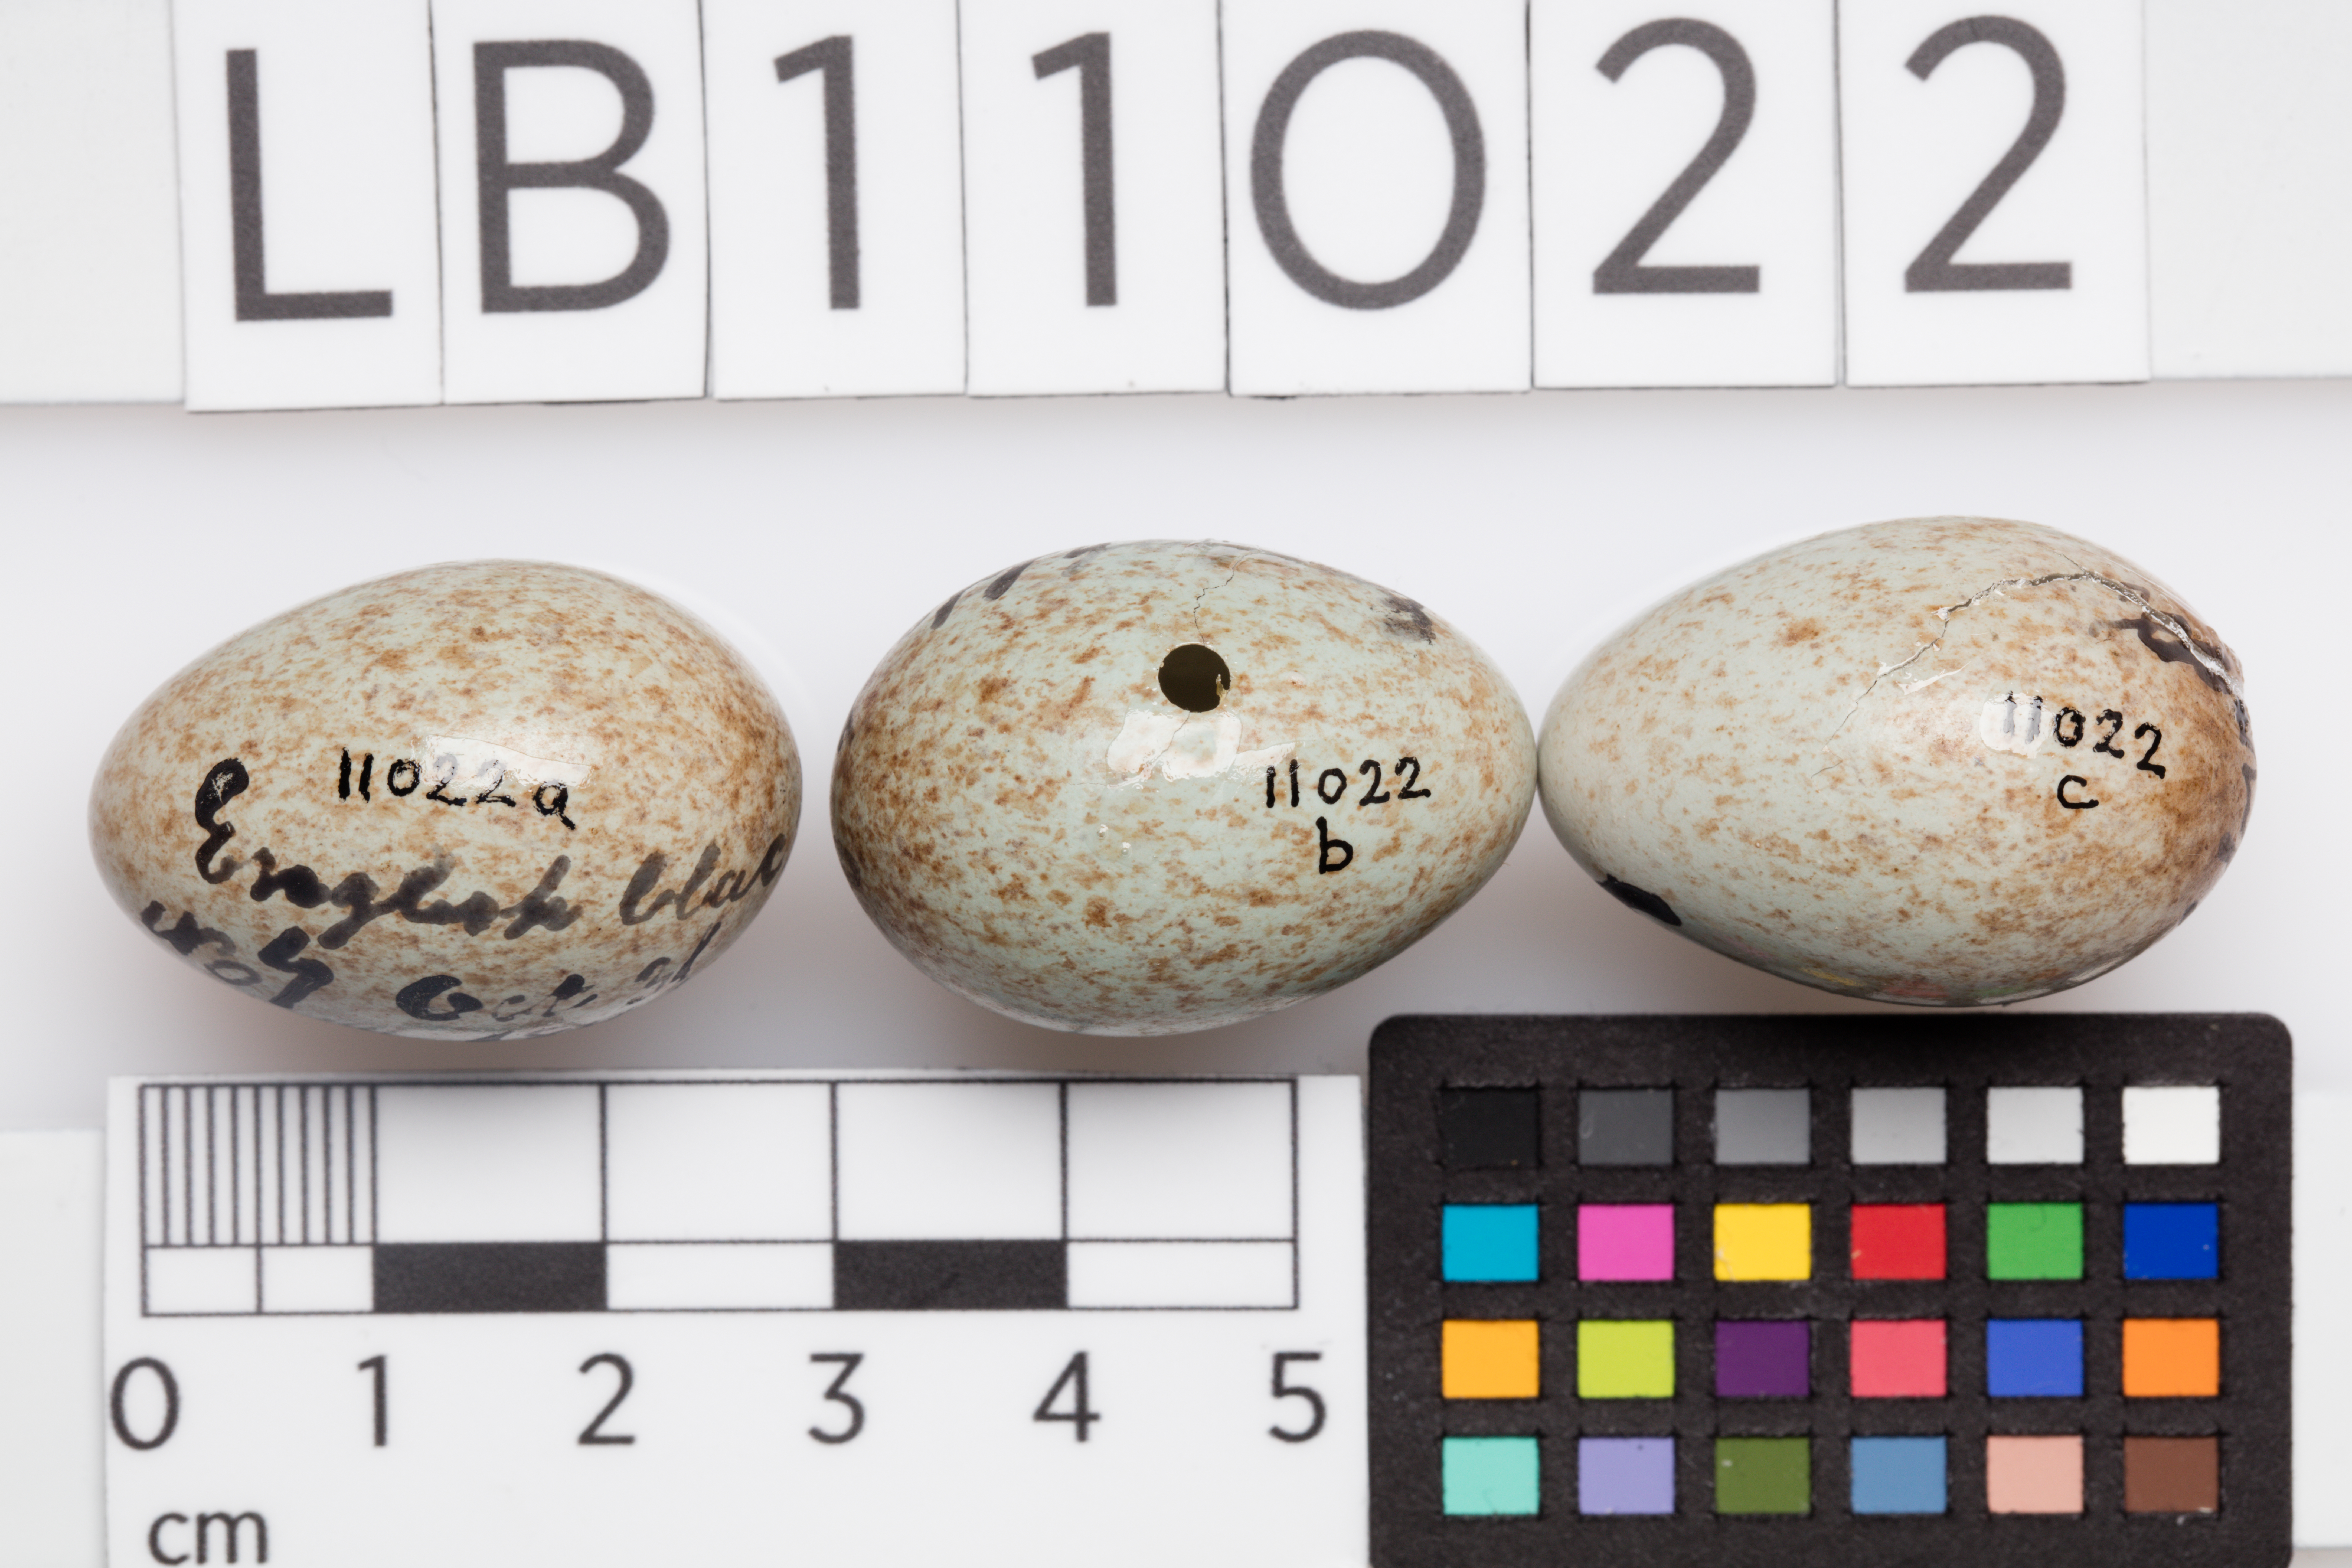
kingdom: Animalia
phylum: Chordata
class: Aves
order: Passeriformes
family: Turdidae
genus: Turdus
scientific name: Turdus merula
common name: Common blackbird
